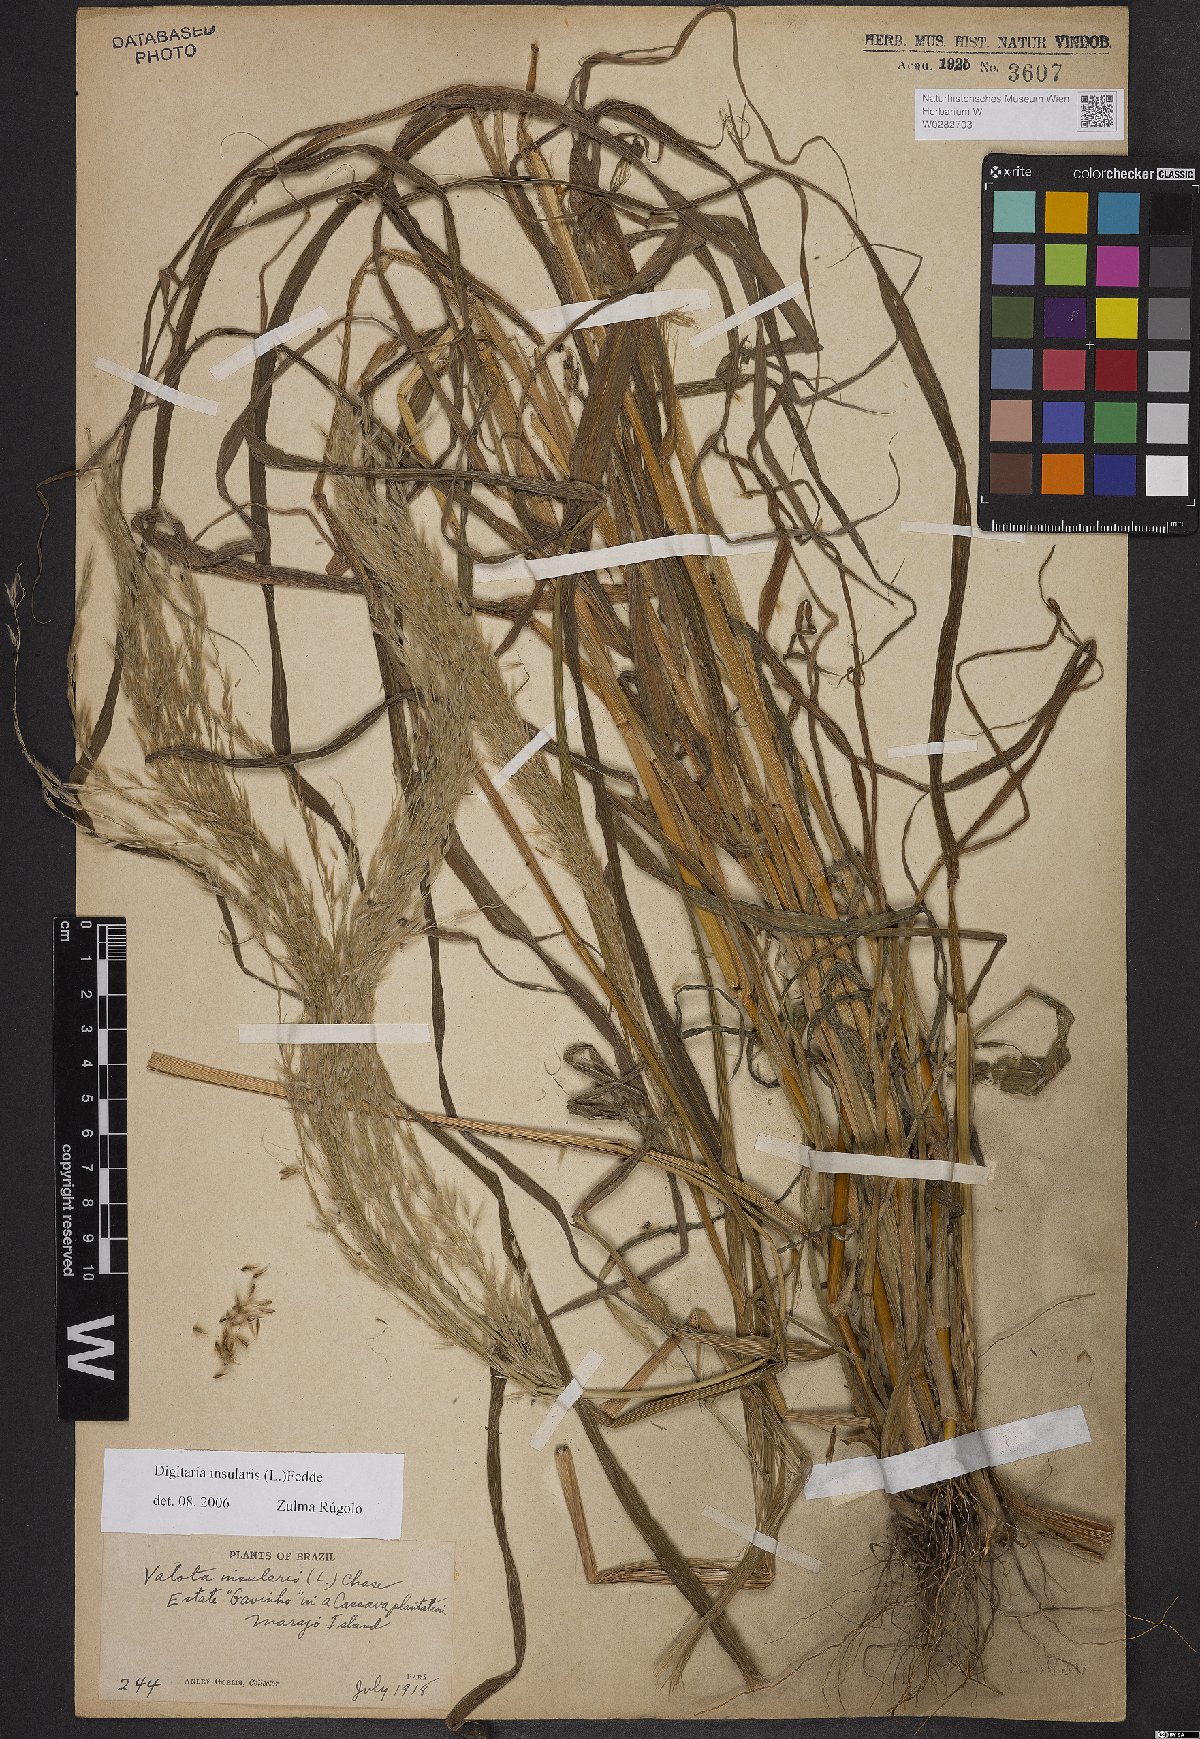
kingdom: Plantae
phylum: Tracheophyta
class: Liliopsida
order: Poales
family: Poaceae
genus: Digitaria
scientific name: Digitaria insularis
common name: Sourgrass
